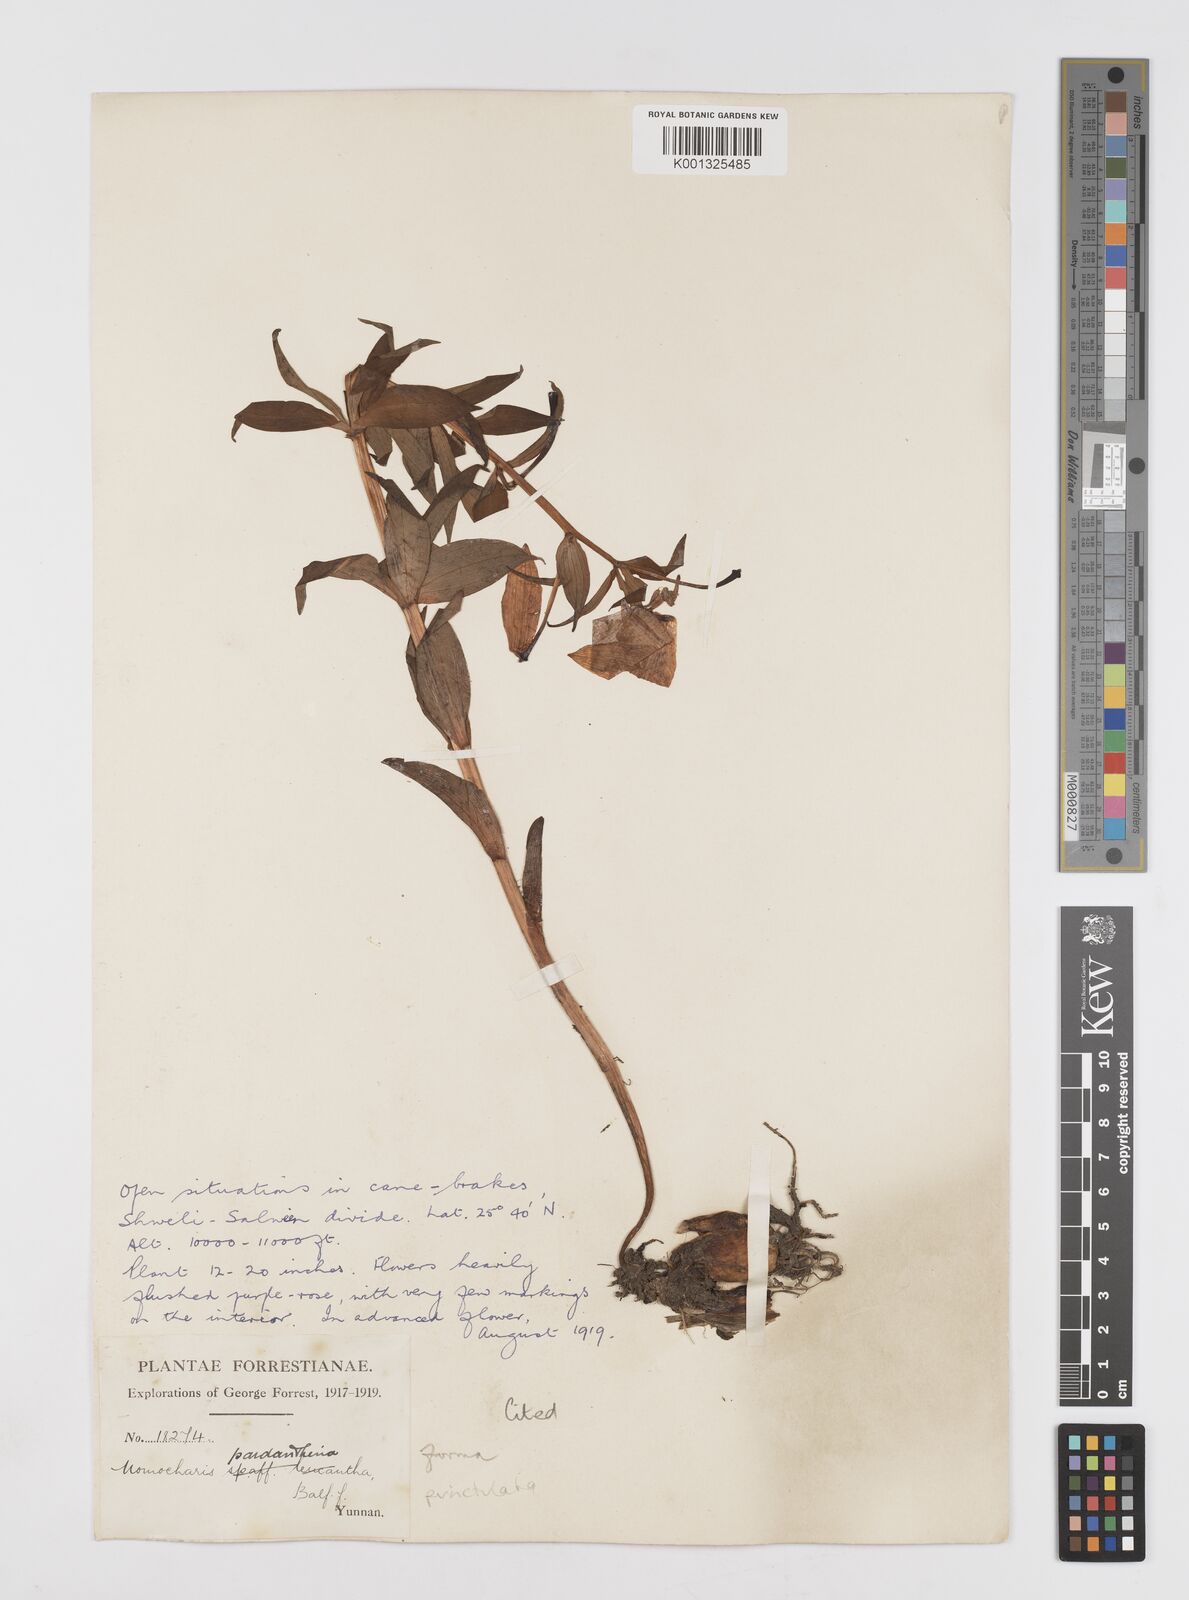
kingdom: Plantae
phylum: Tracheophyta
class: Liliopsida
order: Liliales
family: Liliaceae
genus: Lilium
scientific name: Lilium pardanthinum
